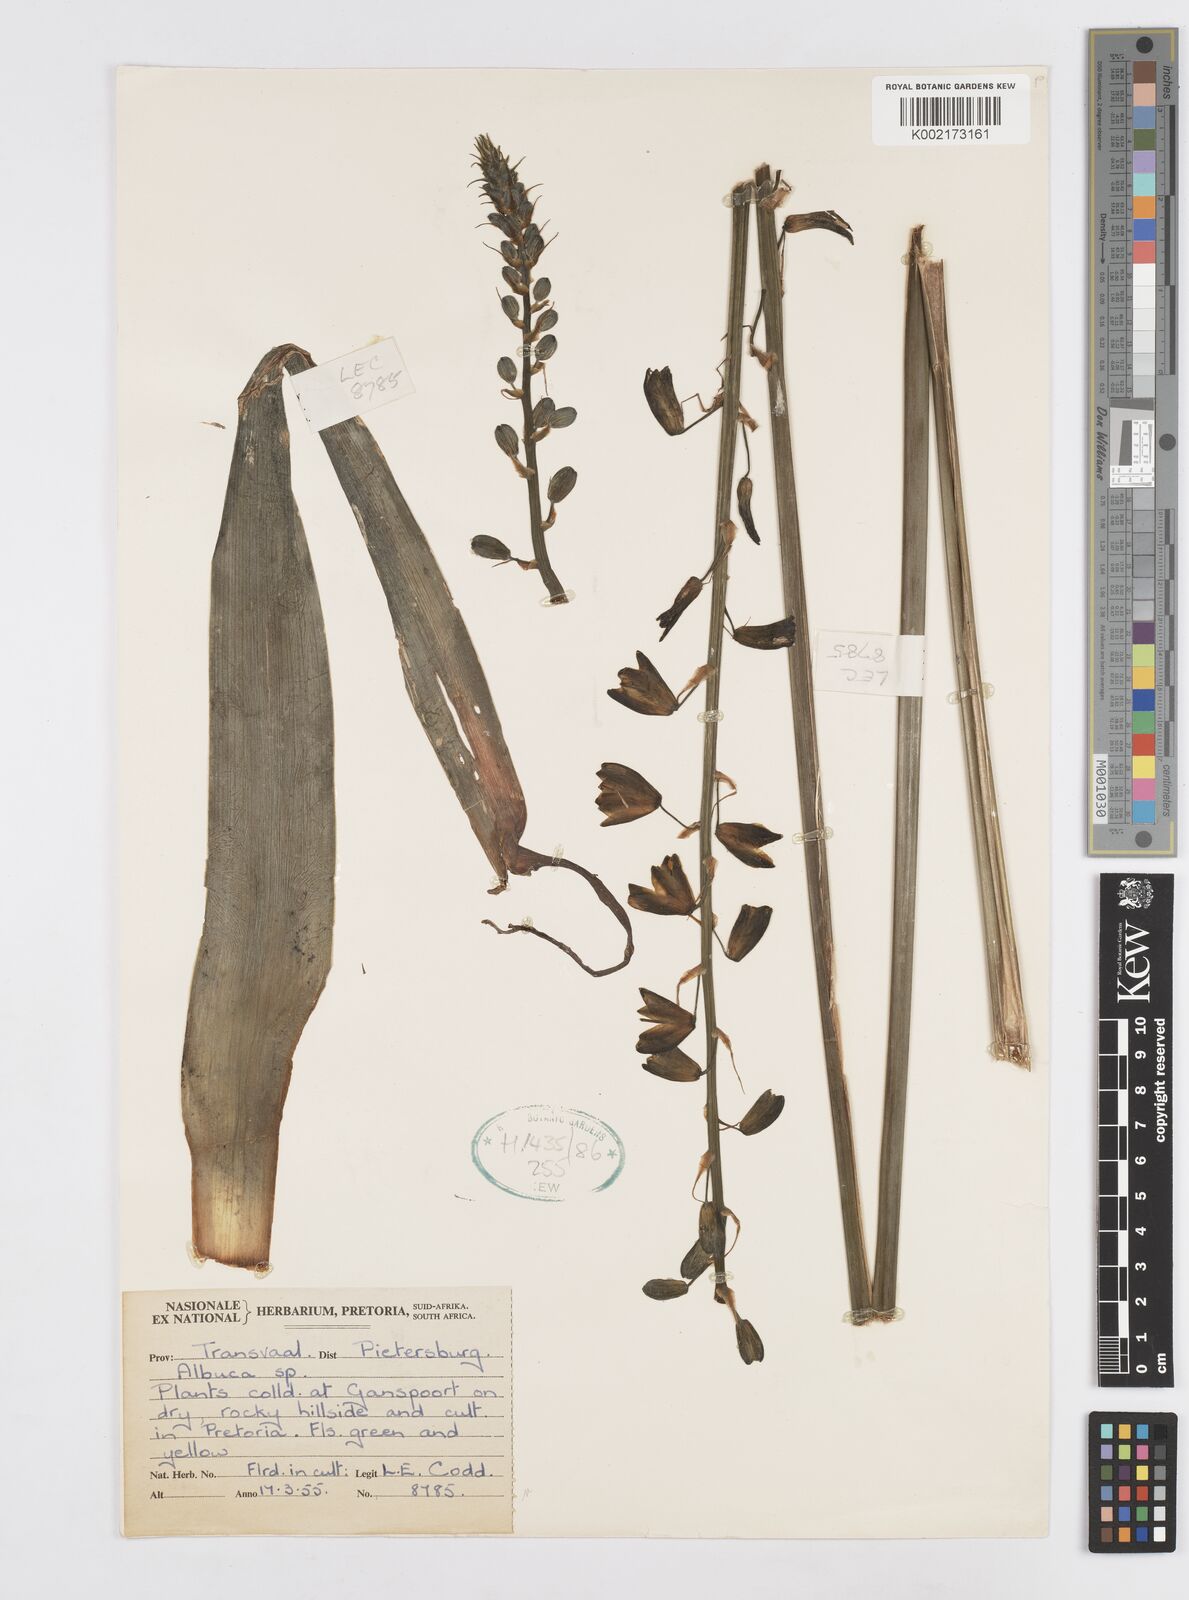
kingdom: Plantae
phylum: Tracheophyta
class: Liliopsida
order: Asparagales
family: Asparagaceae
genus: Albuca
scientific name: Albuca
